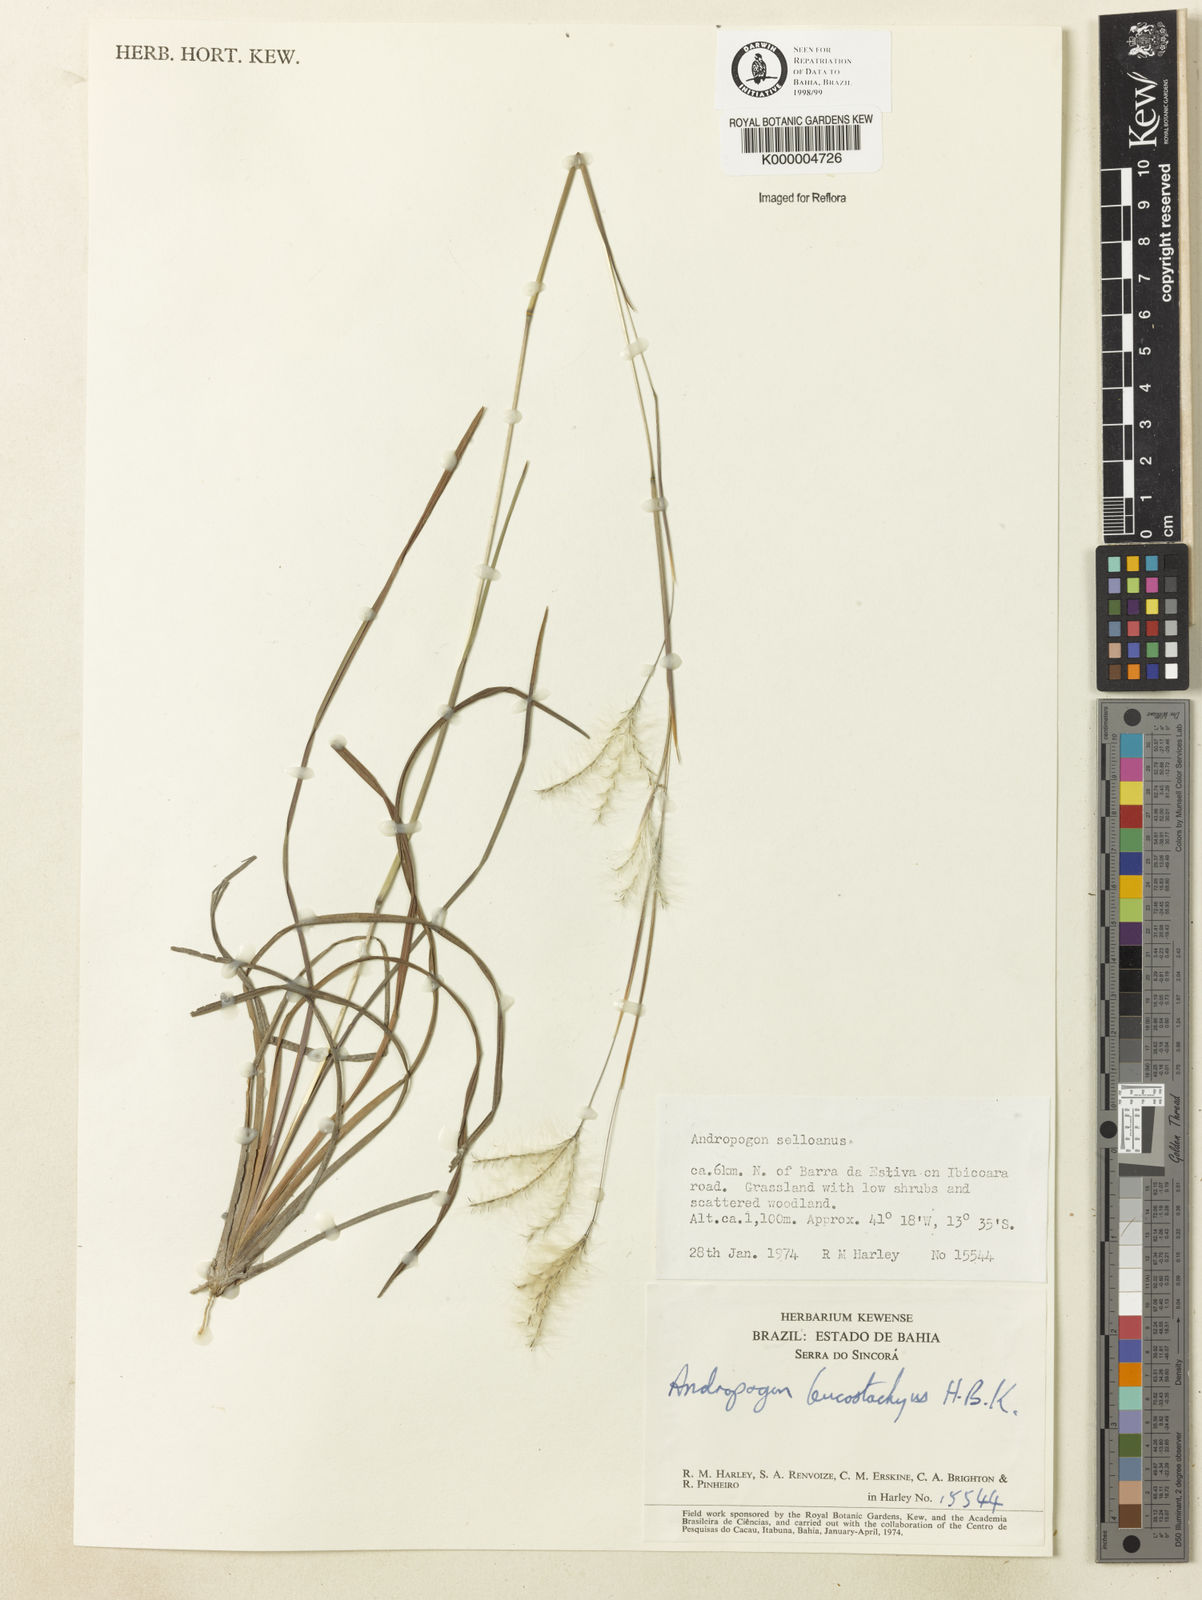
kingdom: Plantae
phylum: Tracheophyta
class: Liliopsida
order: Poales
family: Poaceae
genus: Andropogon
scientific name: Andropogon leucostachyus
